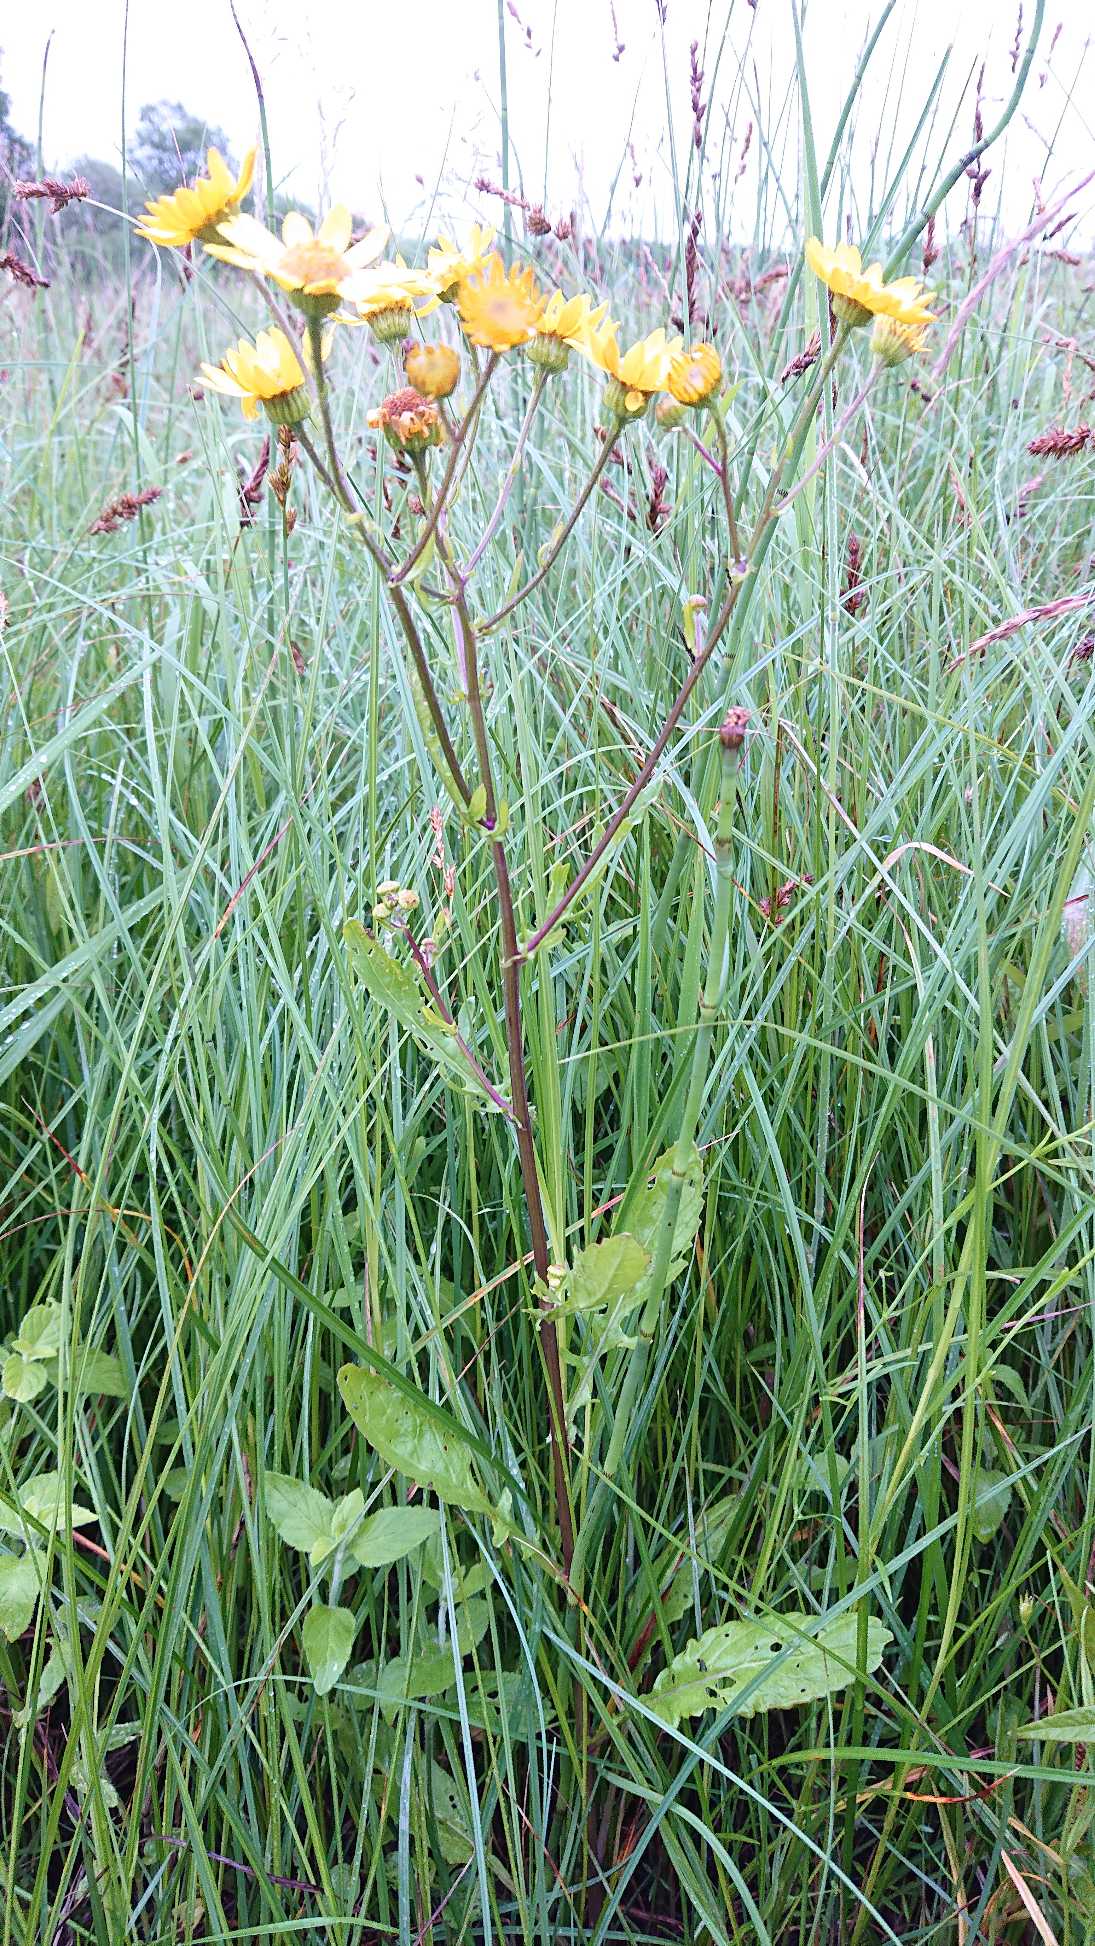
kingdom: Plantae
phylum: Tracheophyta
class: Magnoliopsida
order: Asterales
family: Asteraceae
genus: Jacobaea
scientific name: Jacobaea aquatica
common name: Vand-brandbæger
